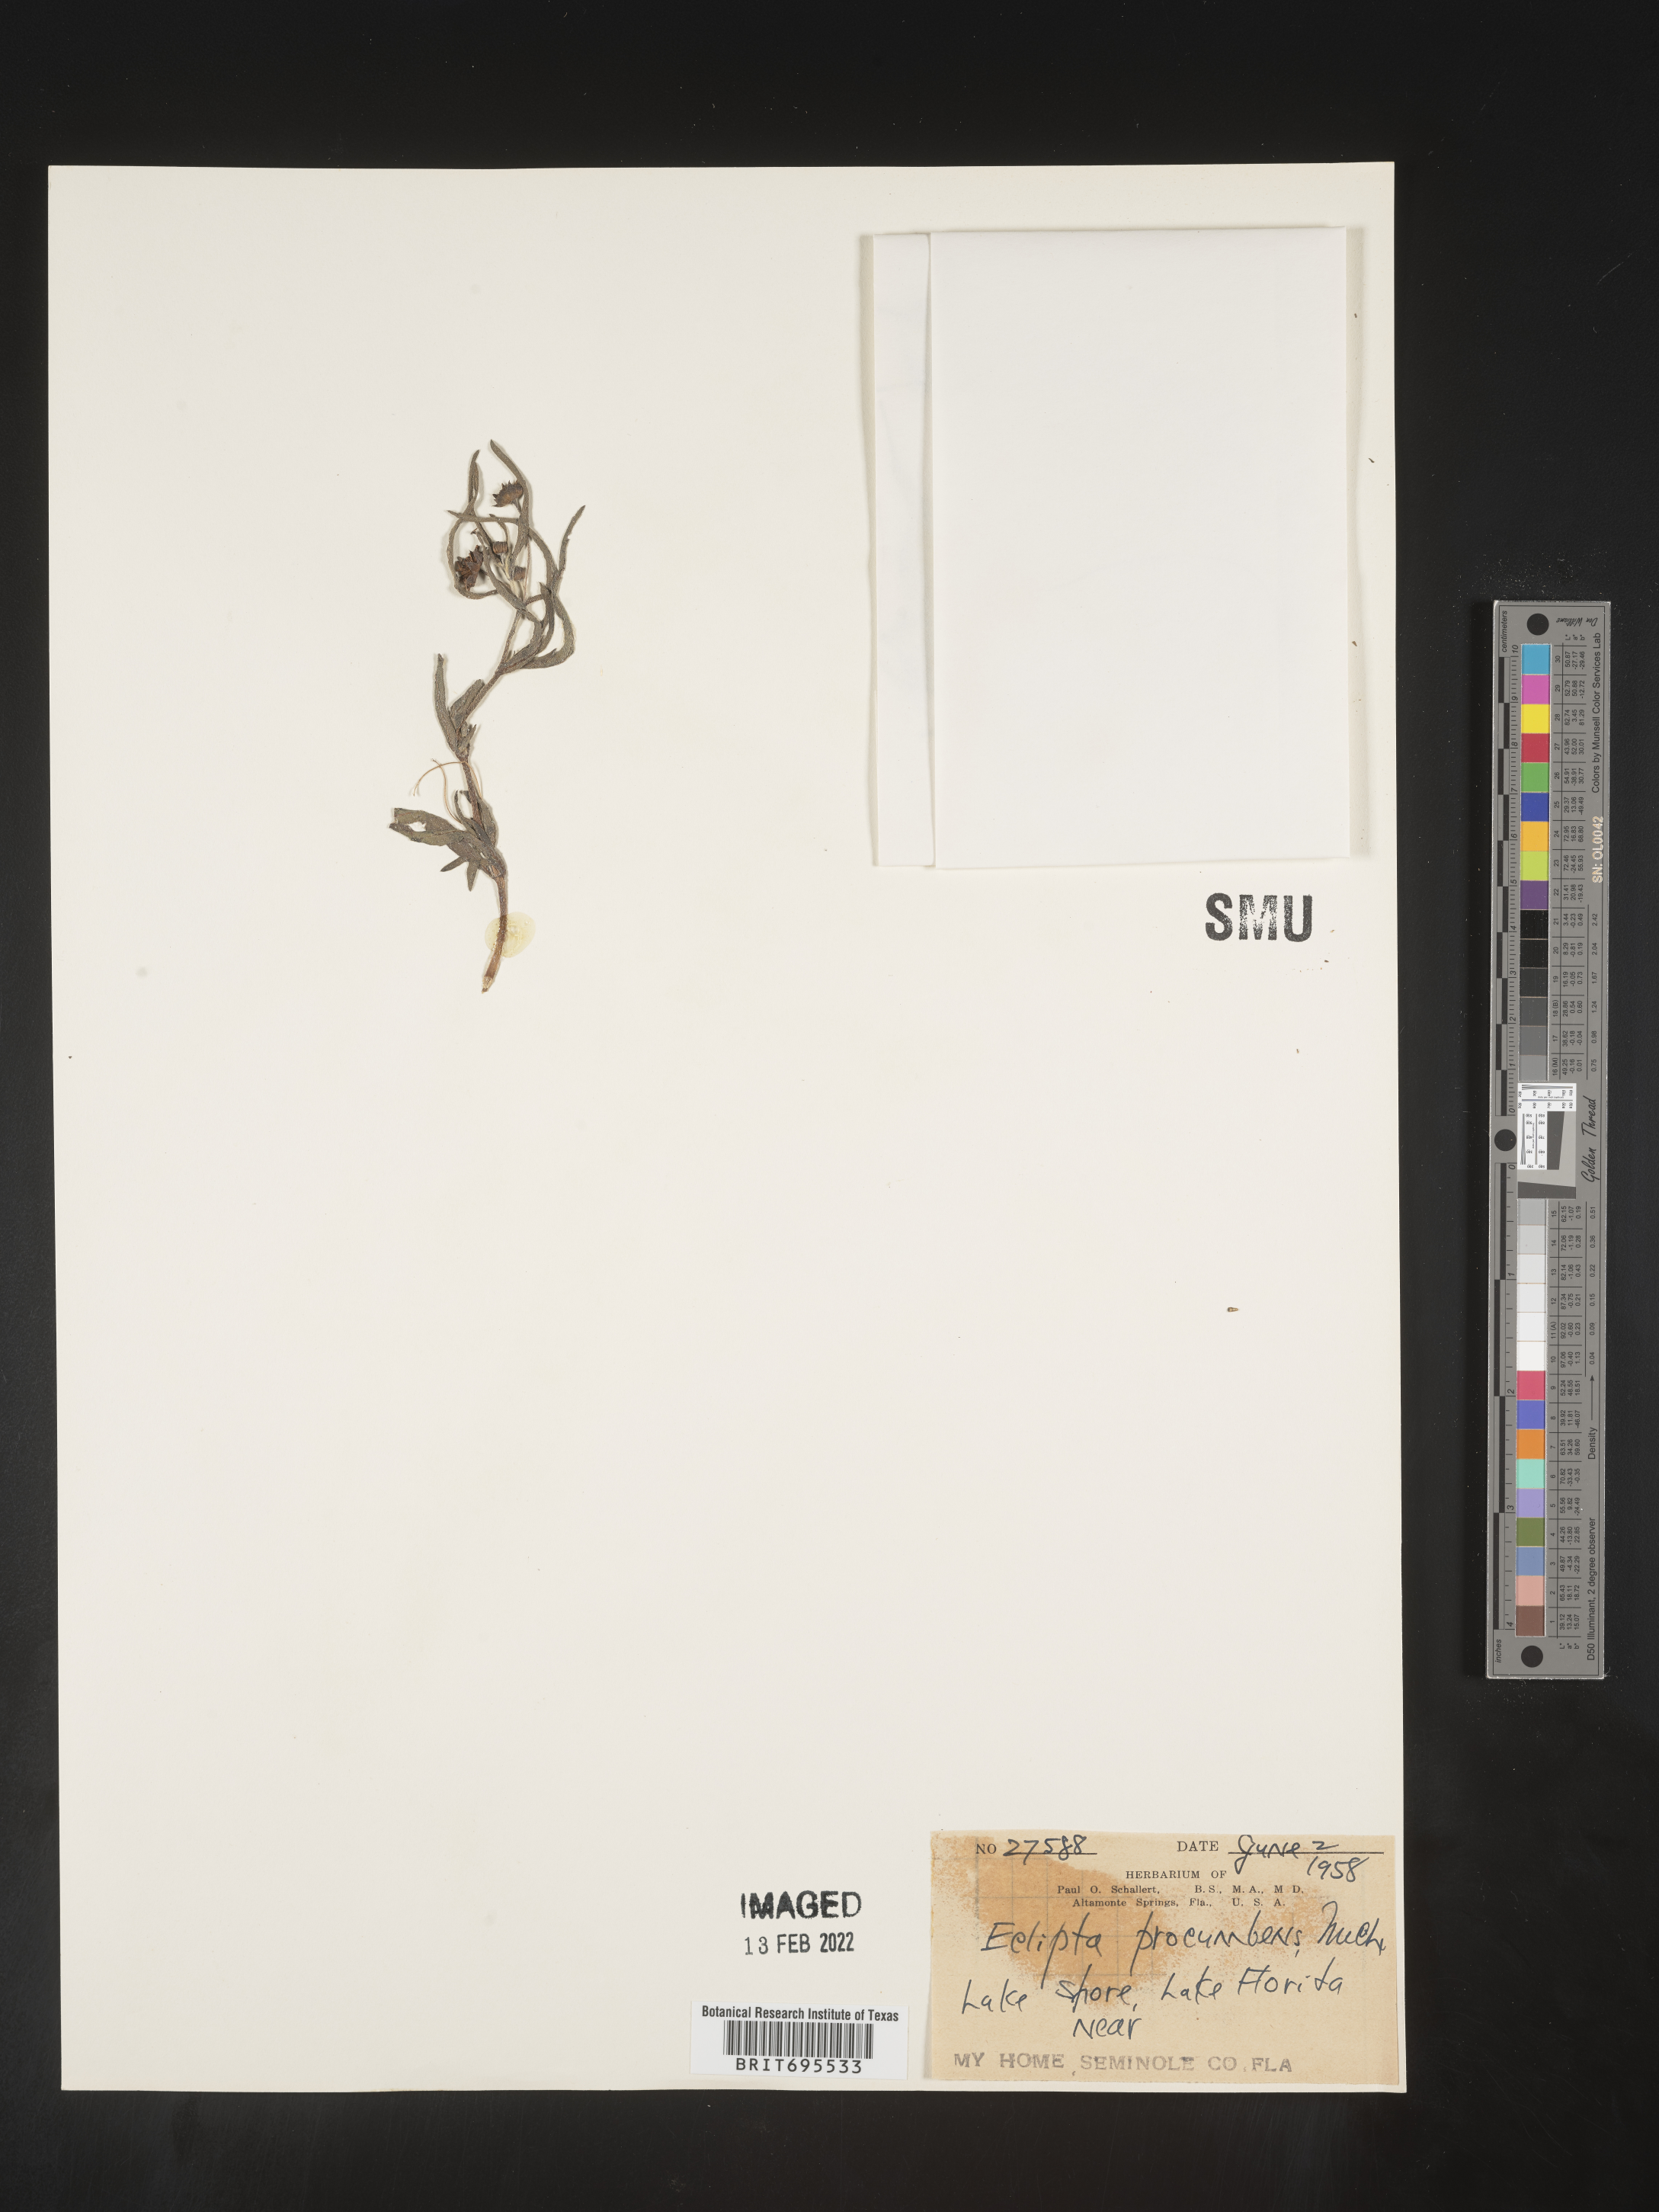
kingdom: Plantae
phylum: Tracheophyta
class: Magnoliopsida
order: Asterales
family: Asteraceae
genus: Eclipta
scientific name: Eclipta alba
